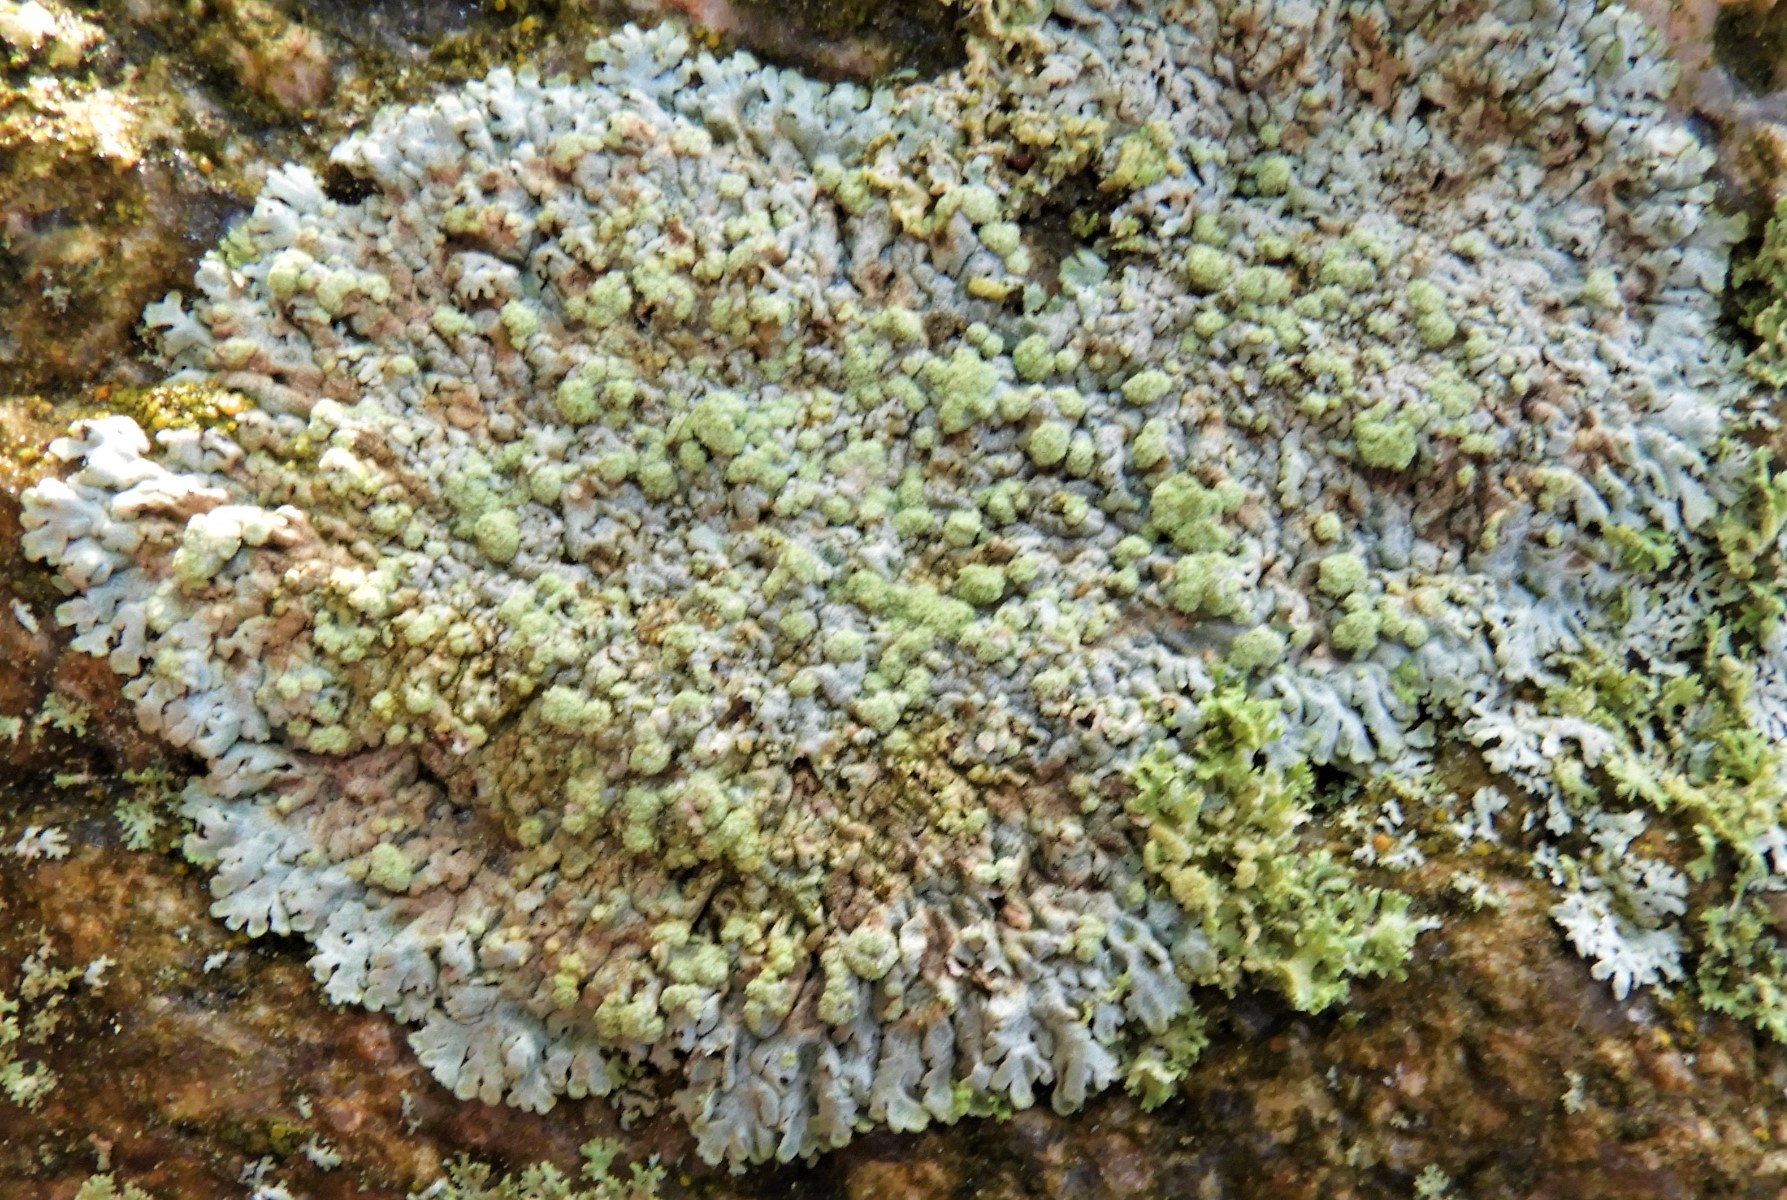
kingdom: Fungi
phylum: Ascomycota
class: Lecanoromycetes
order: Caliciales
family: Physciaceae
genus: Physcia
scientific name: Physcia caesia
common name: blågrå rosetlav
